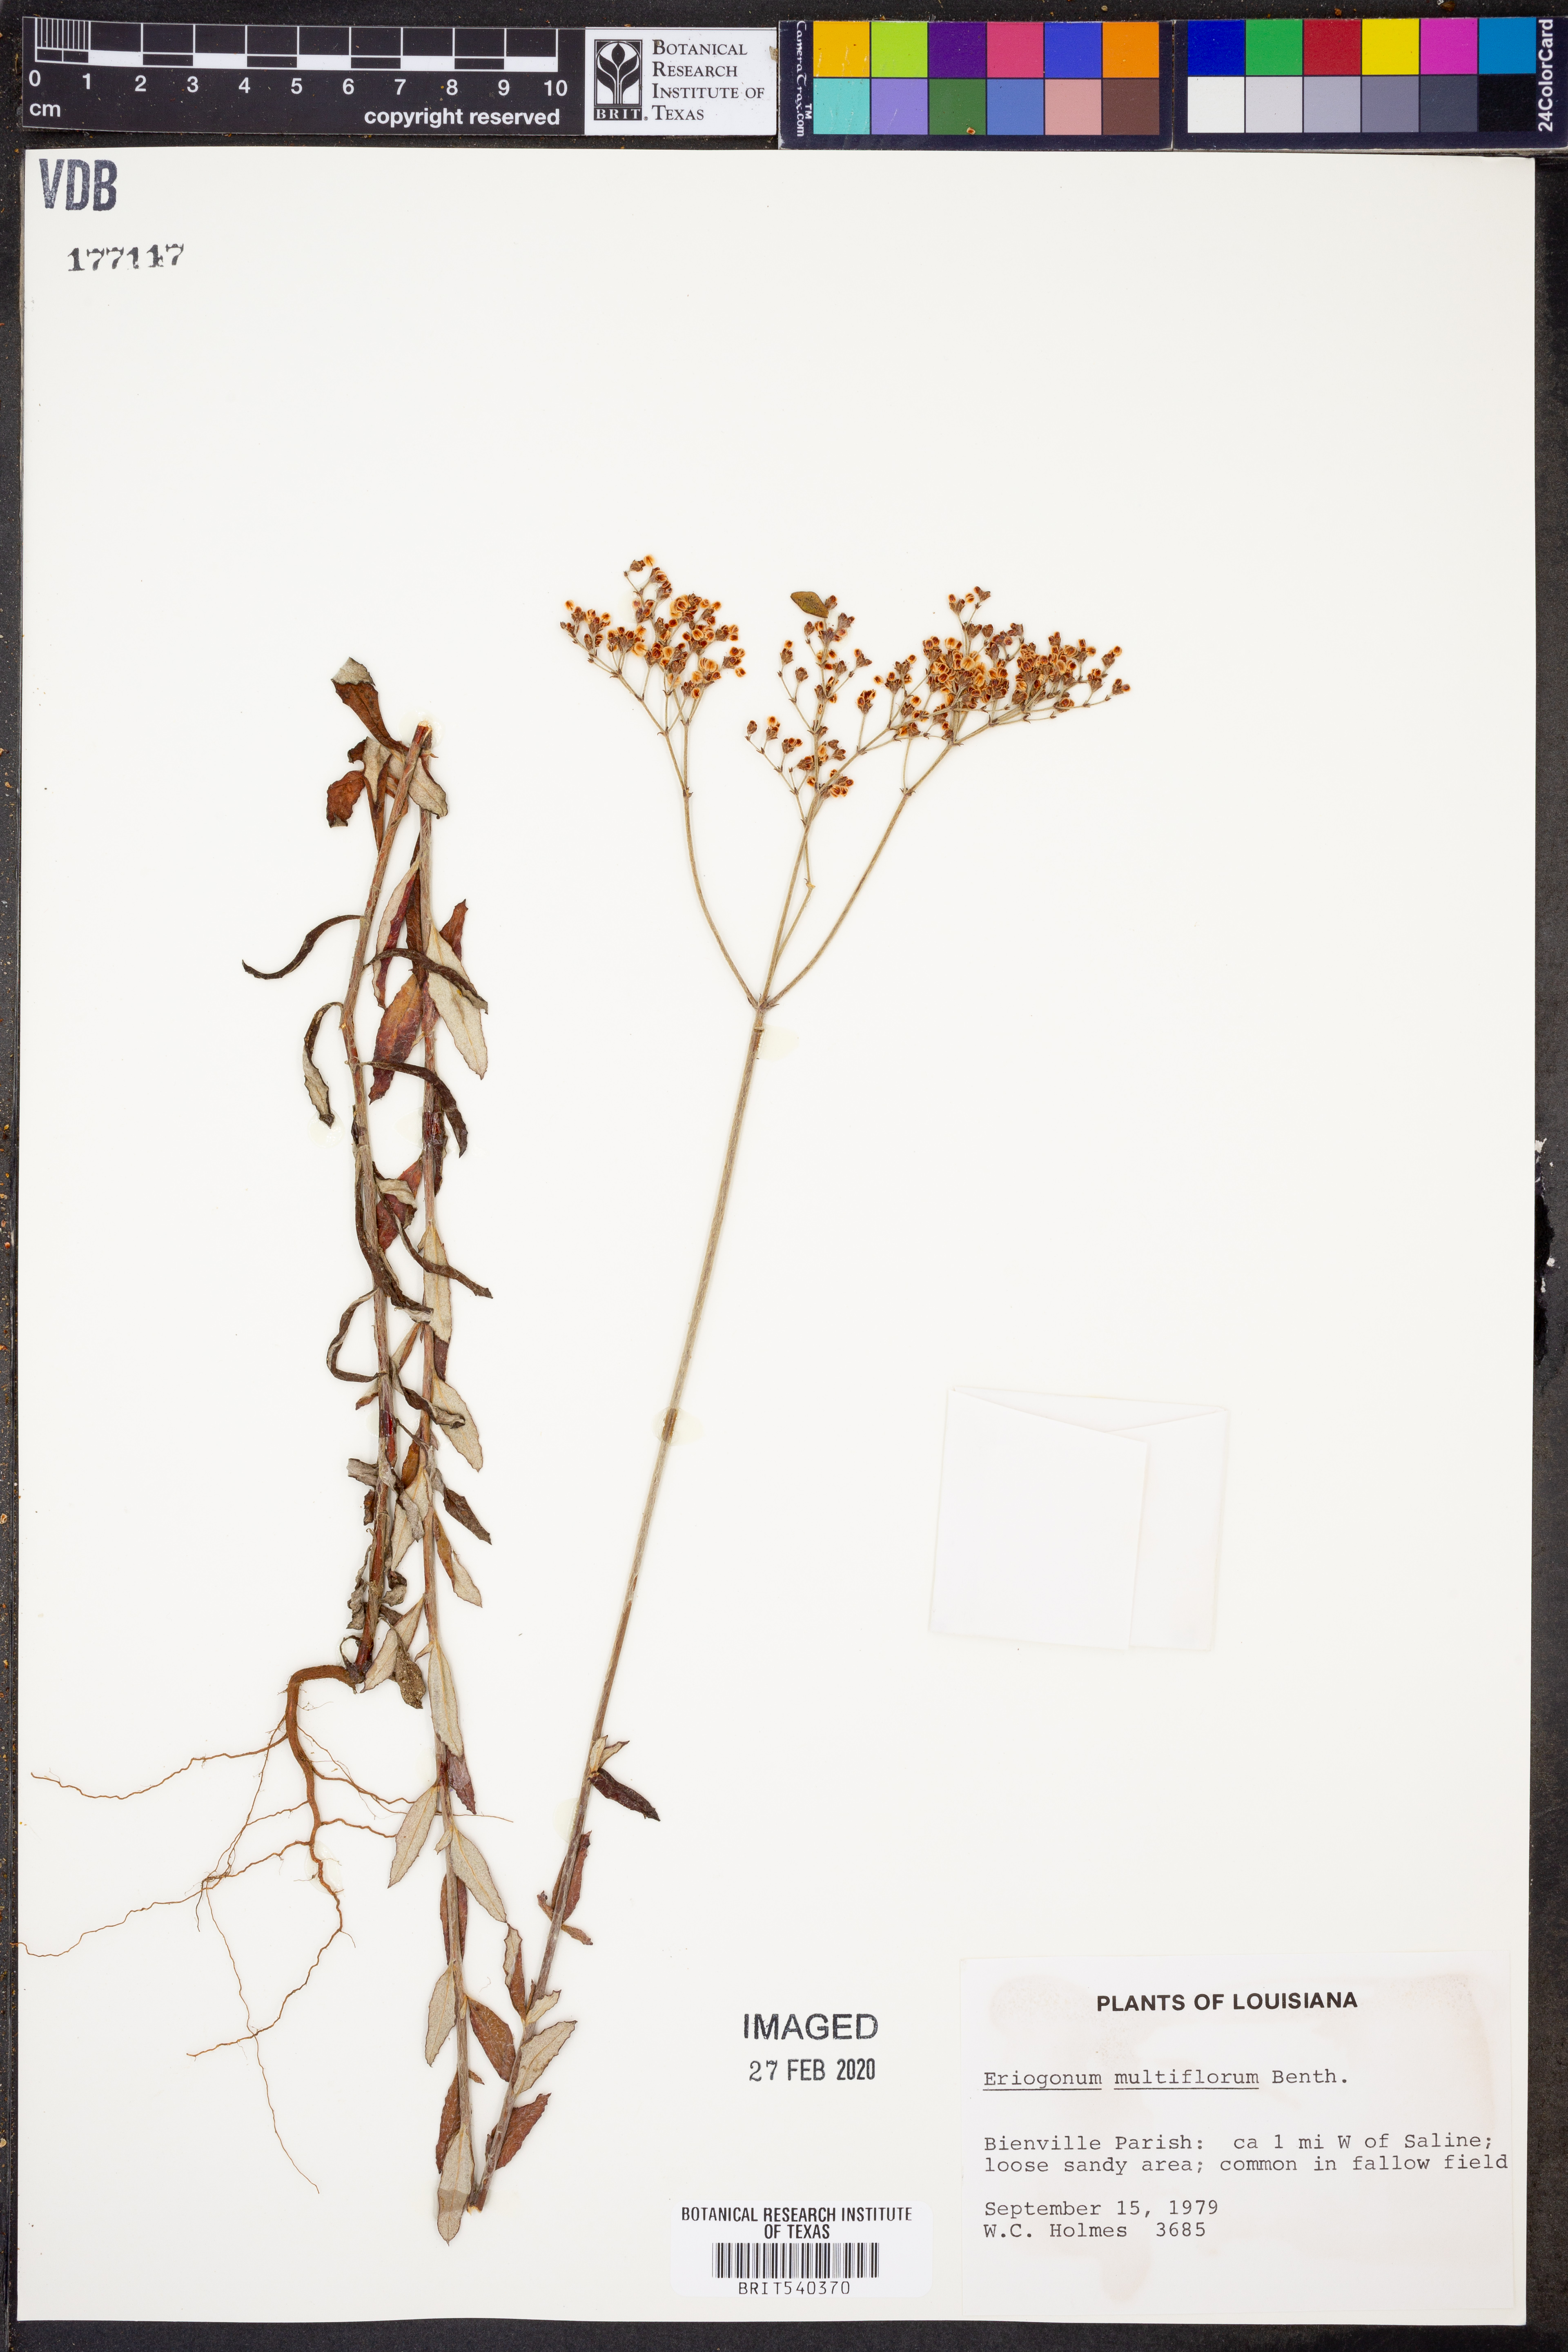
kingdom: Plantae
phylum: Tracheophyta
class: Magnoliopsida
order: Caryophyllales
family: Polygonaceae
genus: Eriogonum
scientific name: Eriogonum multiflorum
